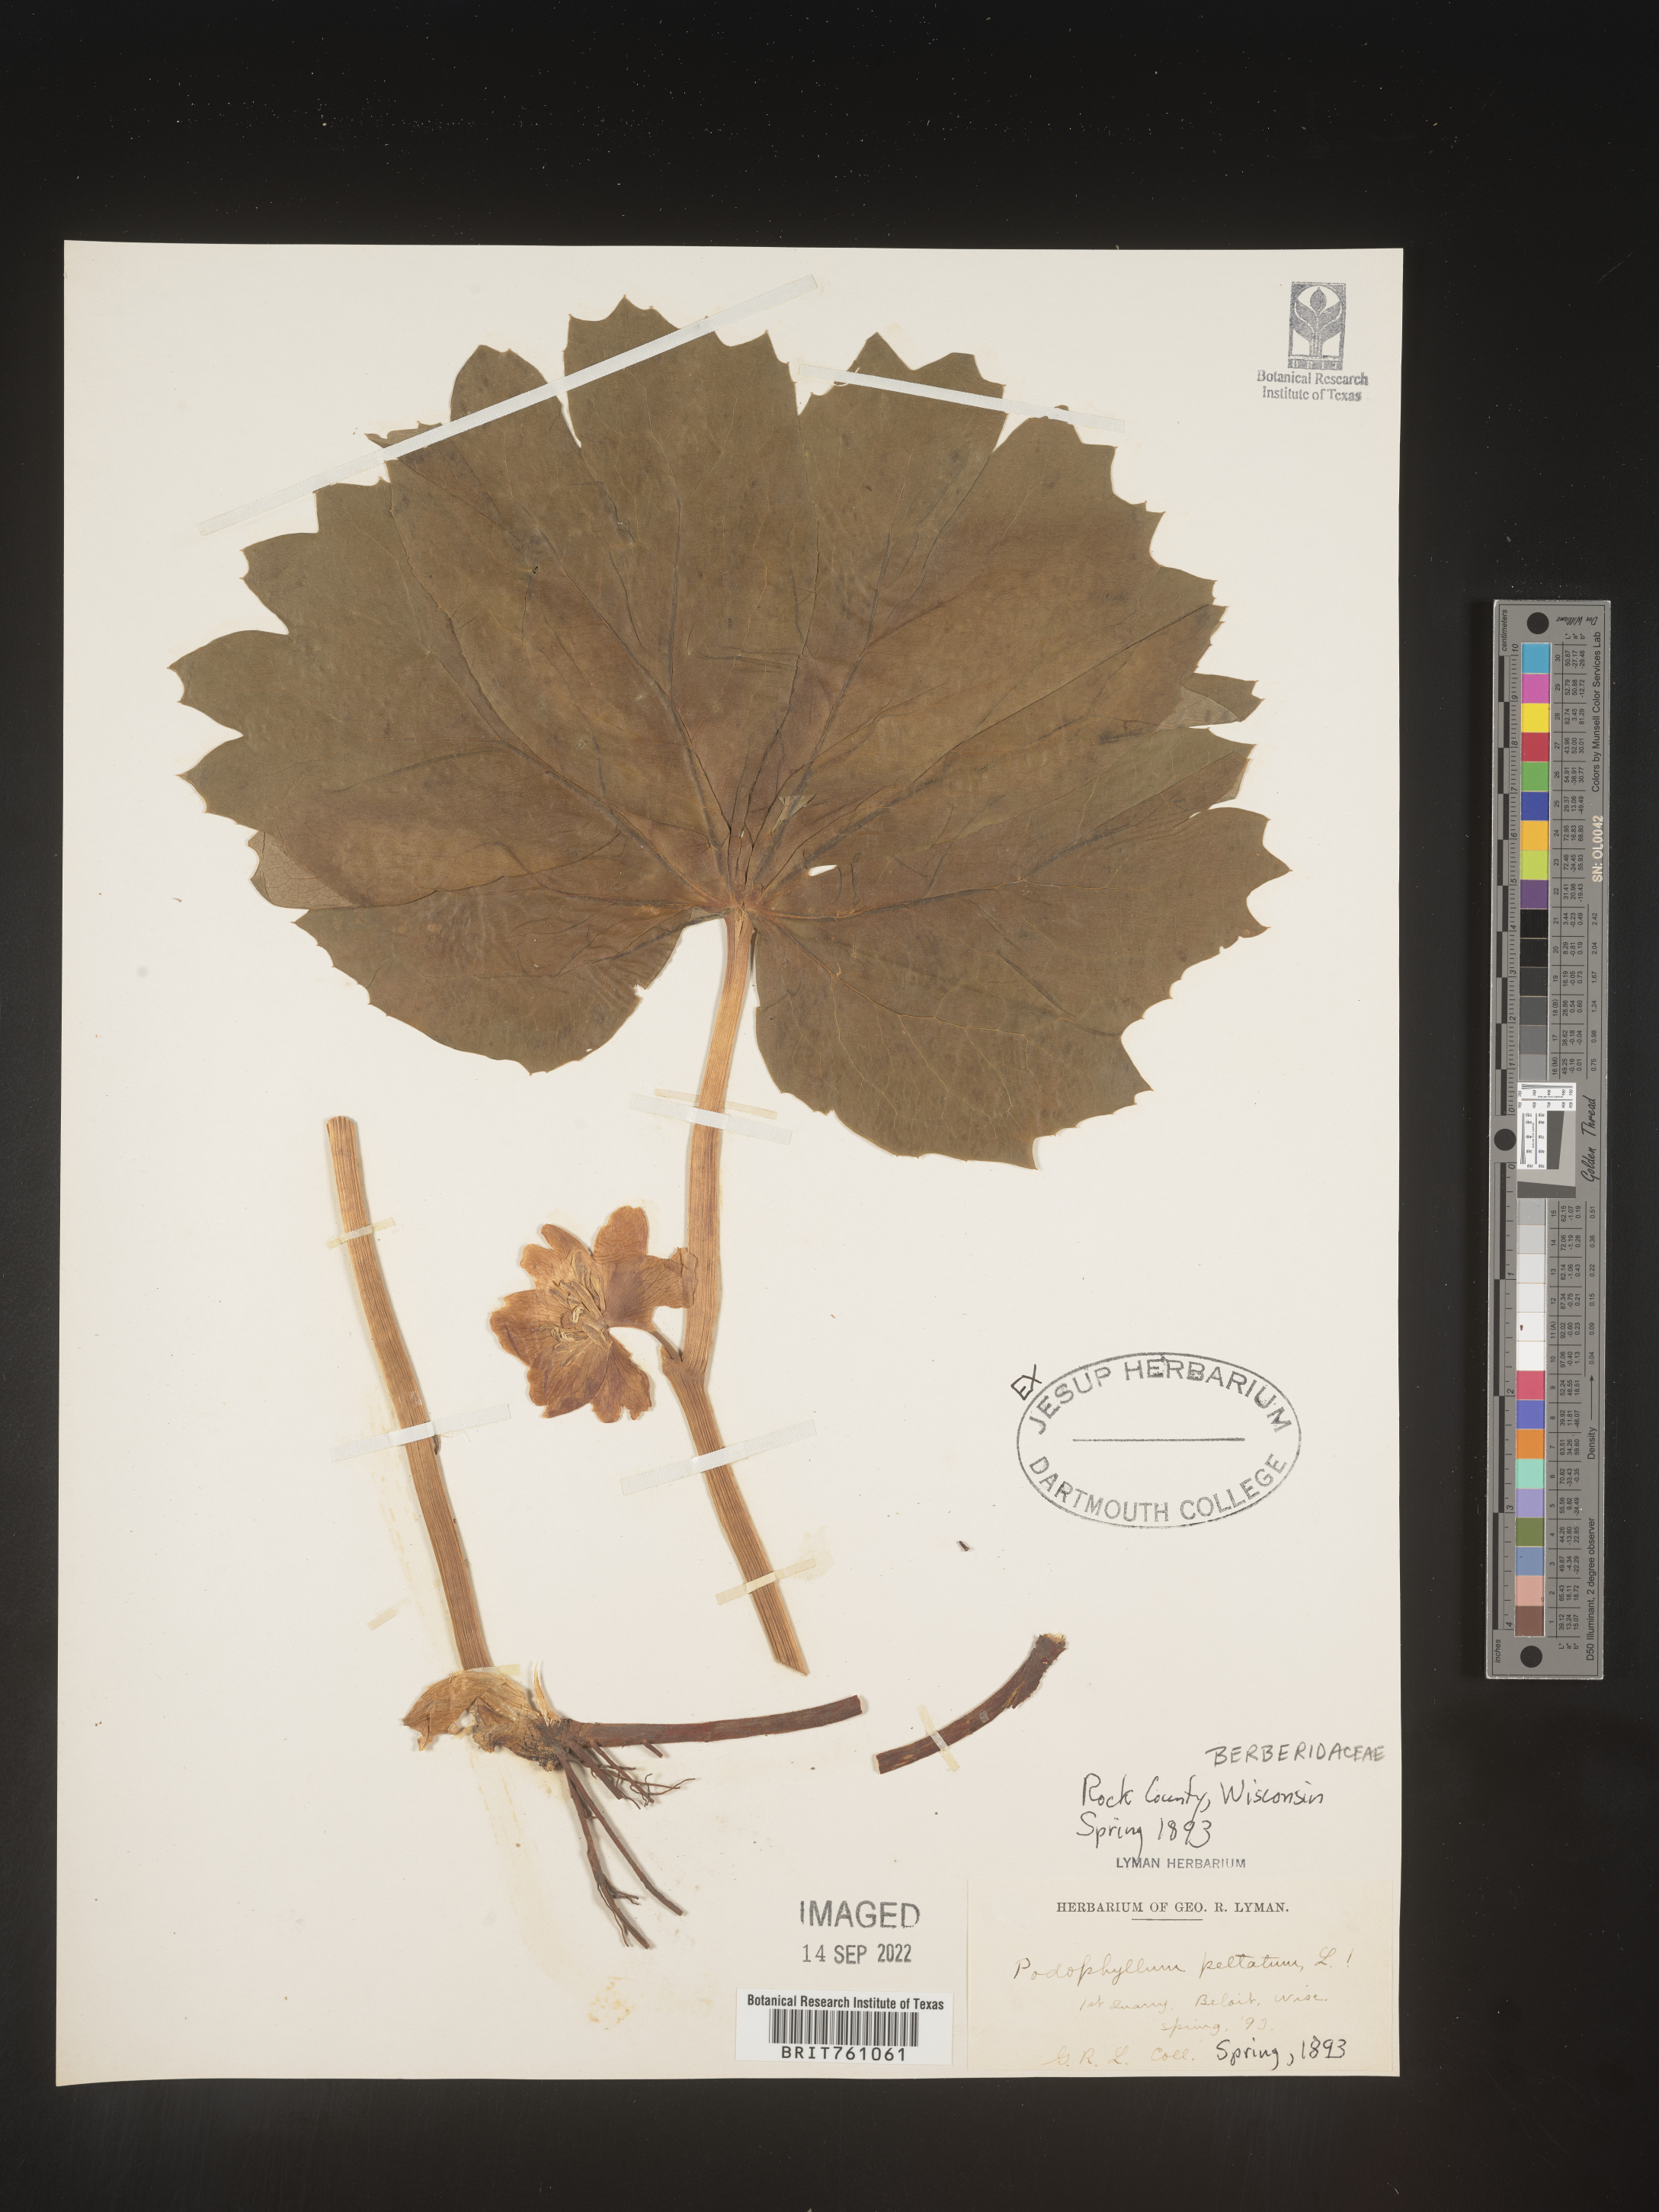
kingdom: Plantae
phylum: Tracheophyta
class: Magnoliopsida
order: Ranunculales
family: Berberidaceae
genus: Podophyllum
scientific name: Podophyllum peltatum
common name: Wild mandrake
